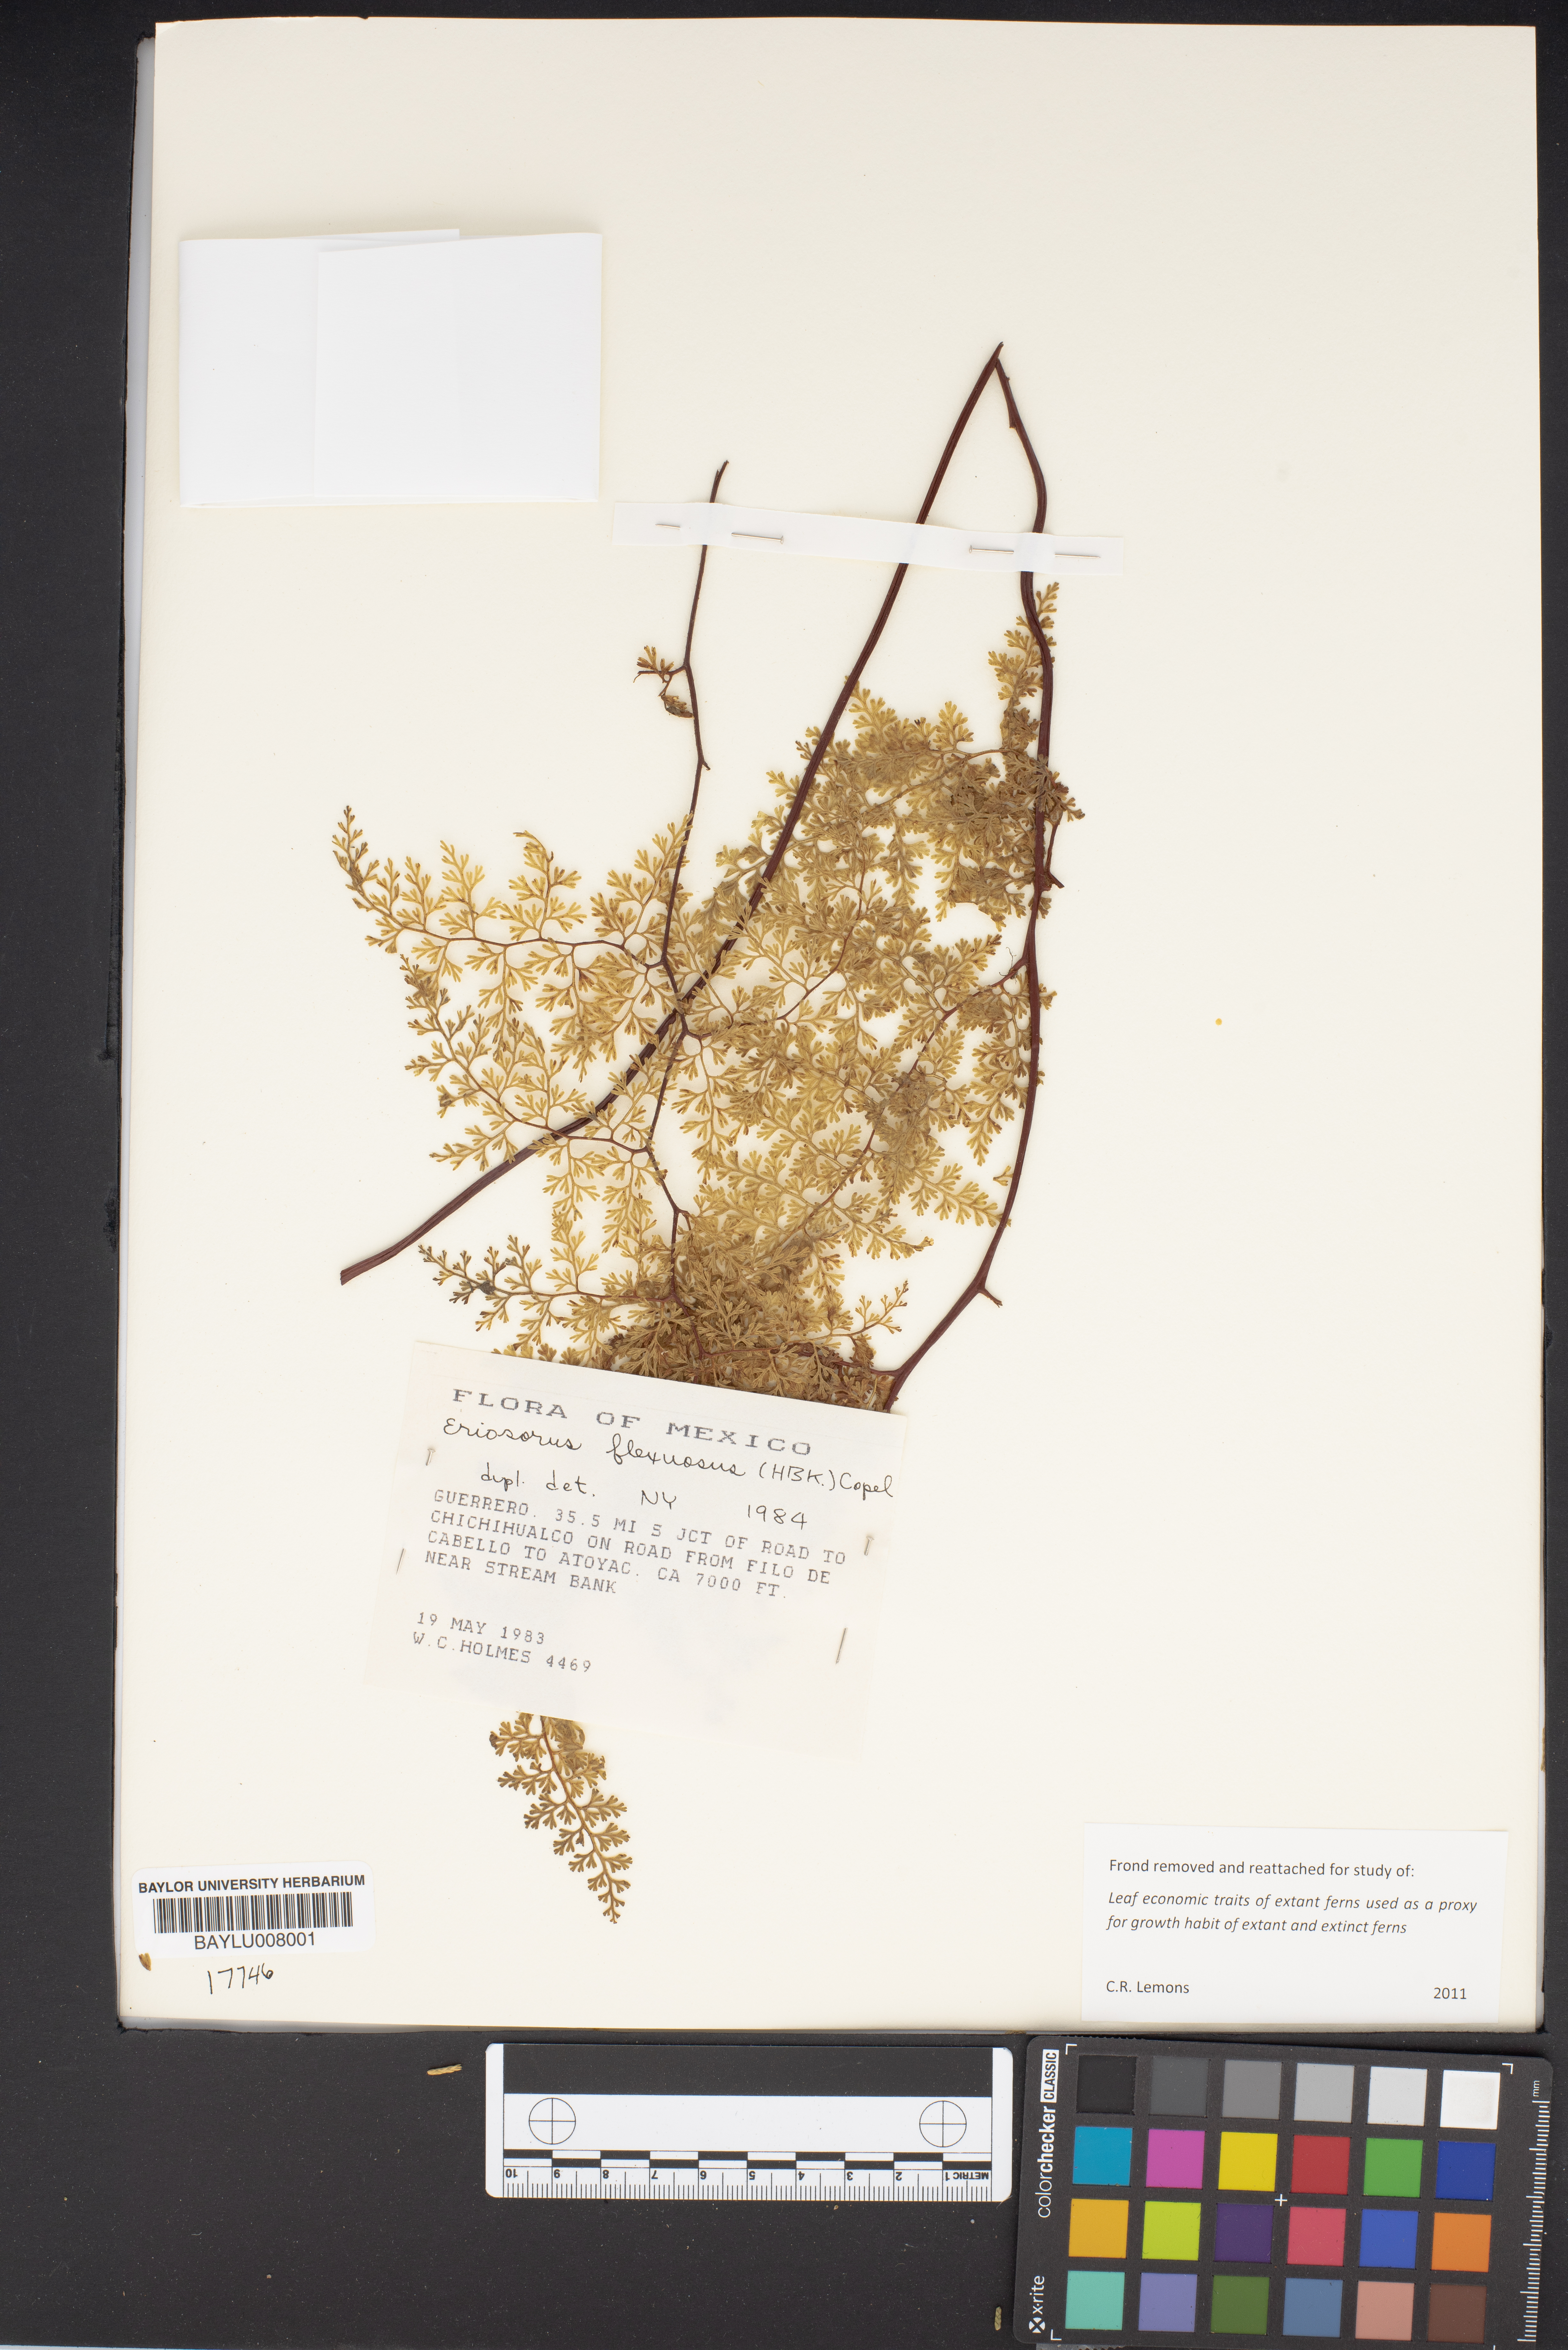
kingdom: Plantae
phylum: Tracheophyta
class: Polypodiopsida
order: Polypodiales
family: Pteridaceae
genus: Jamesonia
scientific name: Jamesonia flexuosa
